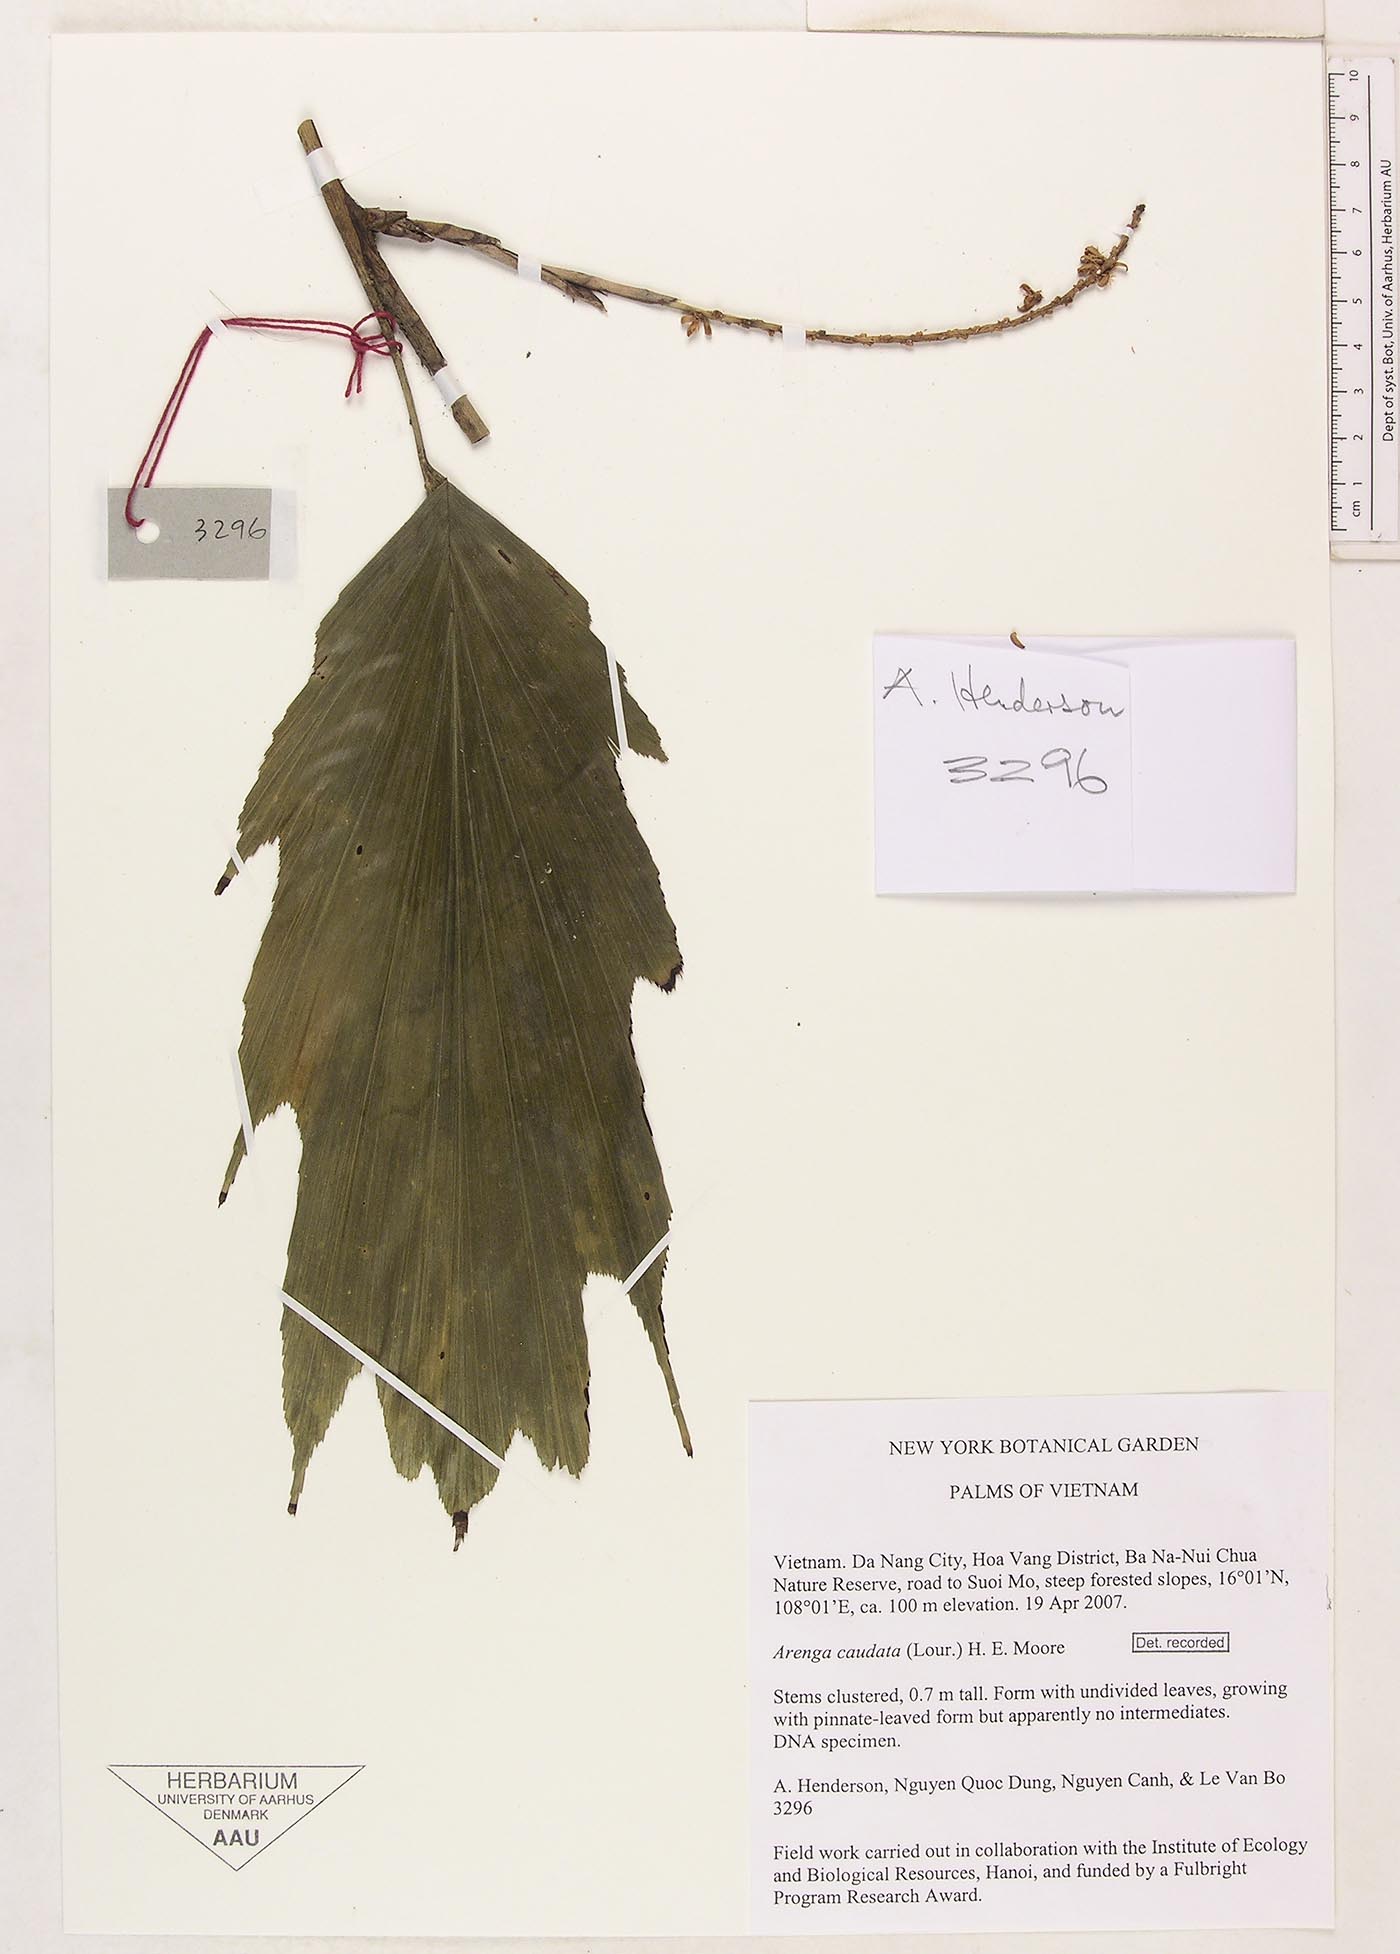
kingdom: Plantae
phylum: Tracheophyta
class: Liliopsida
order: Arecales
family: Arecaceae
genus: Arenga
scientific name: Arenga caudata
